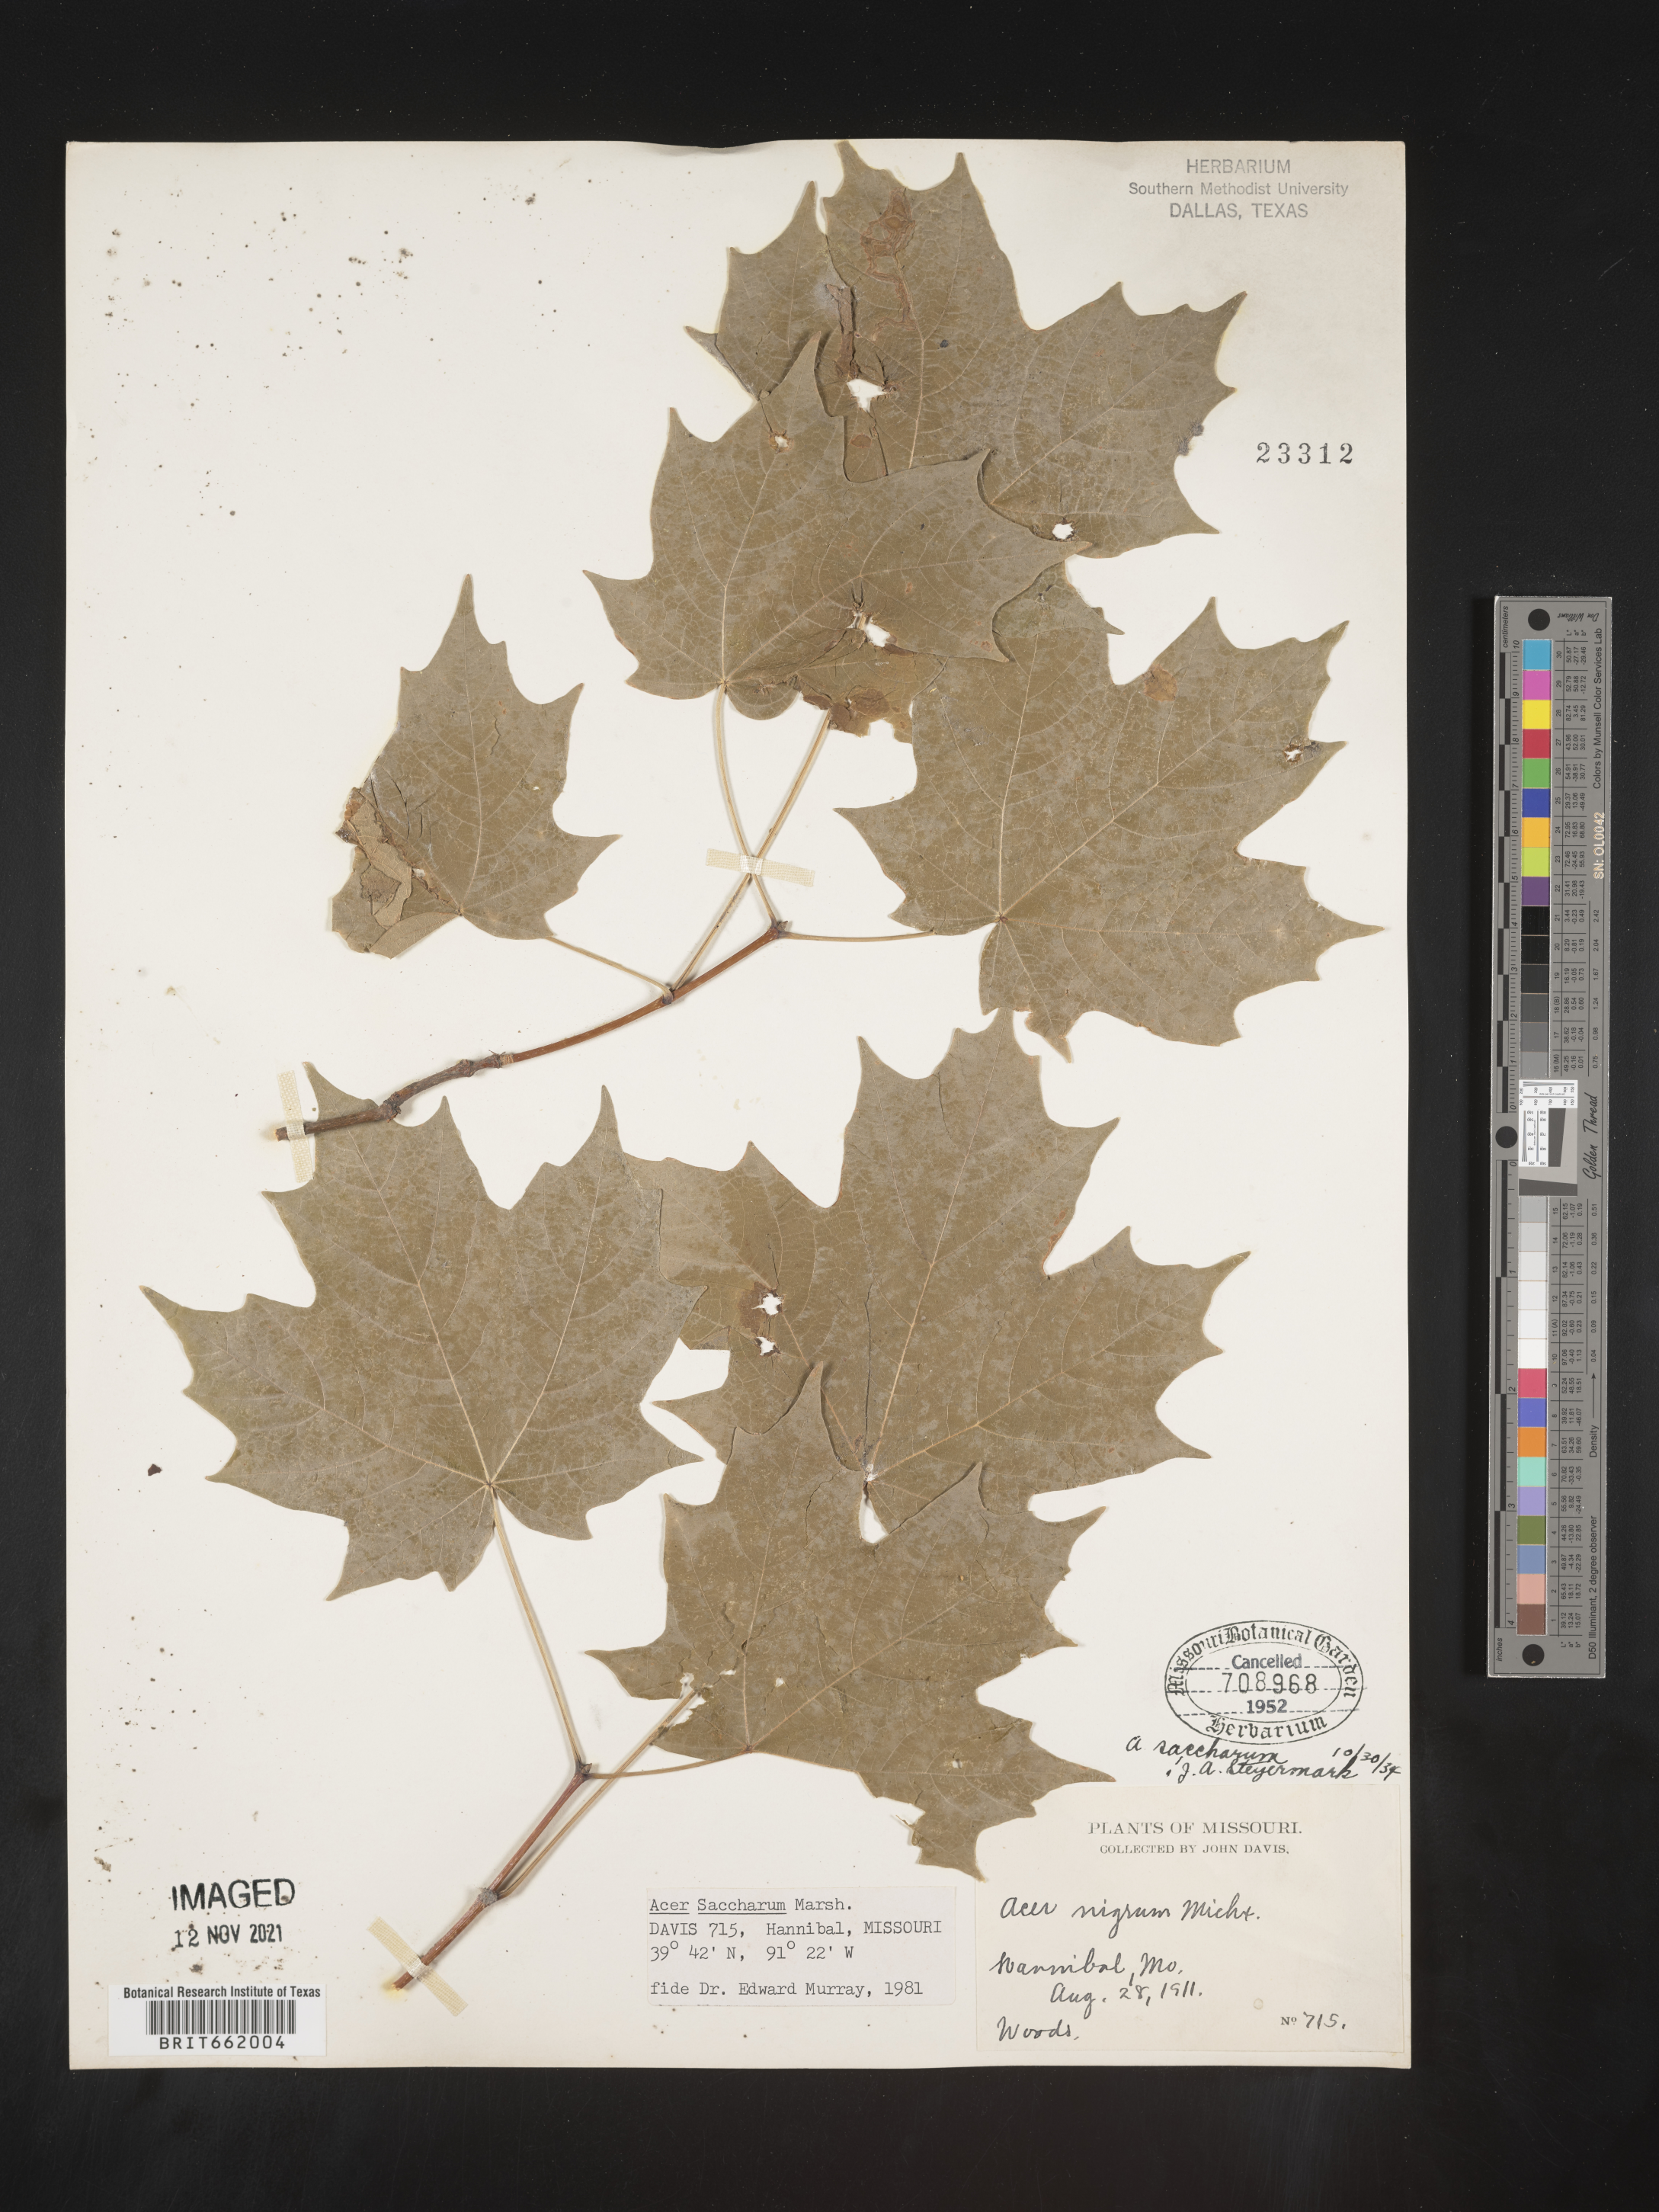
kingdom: Plantae
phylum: Tracheophyta
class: Magnoliopsida
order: Sapindales
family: Sapindaceae
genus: Acer
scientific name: Acer saccharum
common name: Sugar maple
